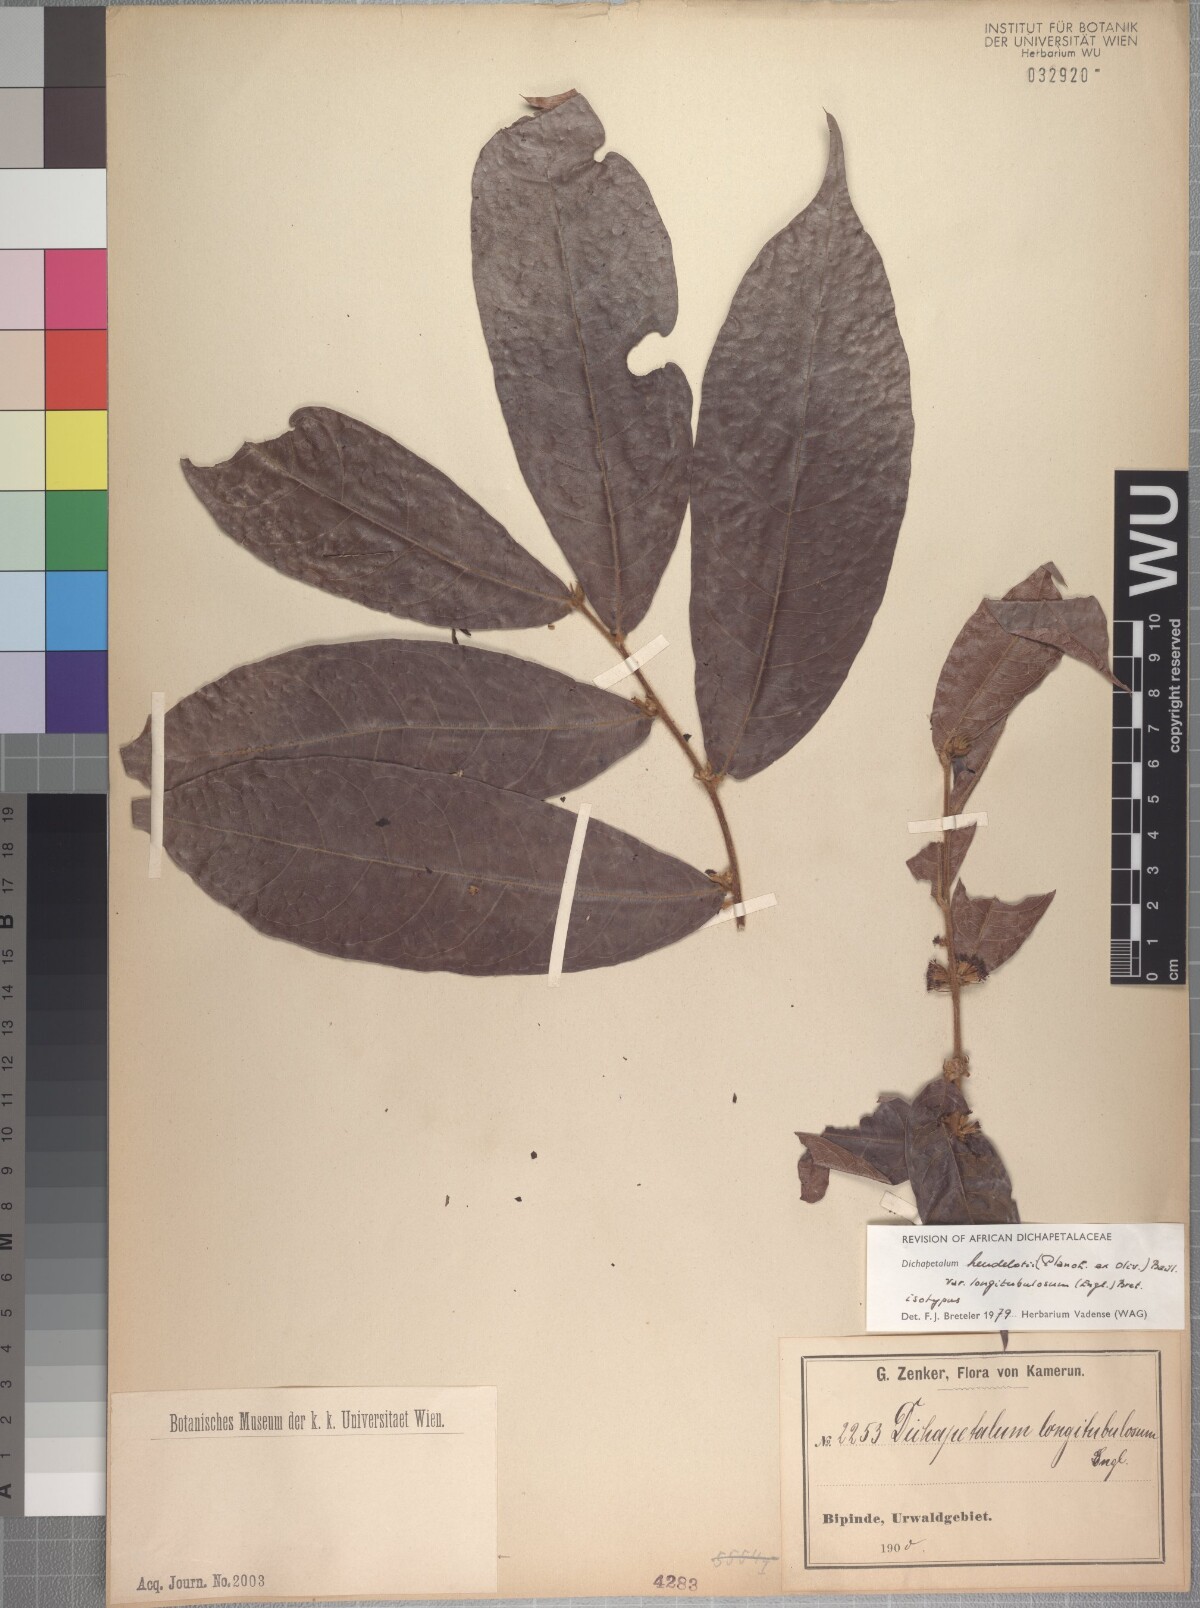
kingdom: Plantae
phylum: Tracheophyta
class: Magnoliopsida
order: Malpighiales
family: Dichapetalaceae
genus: Dichapetalum
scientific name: Dichapetalum heudelotii
